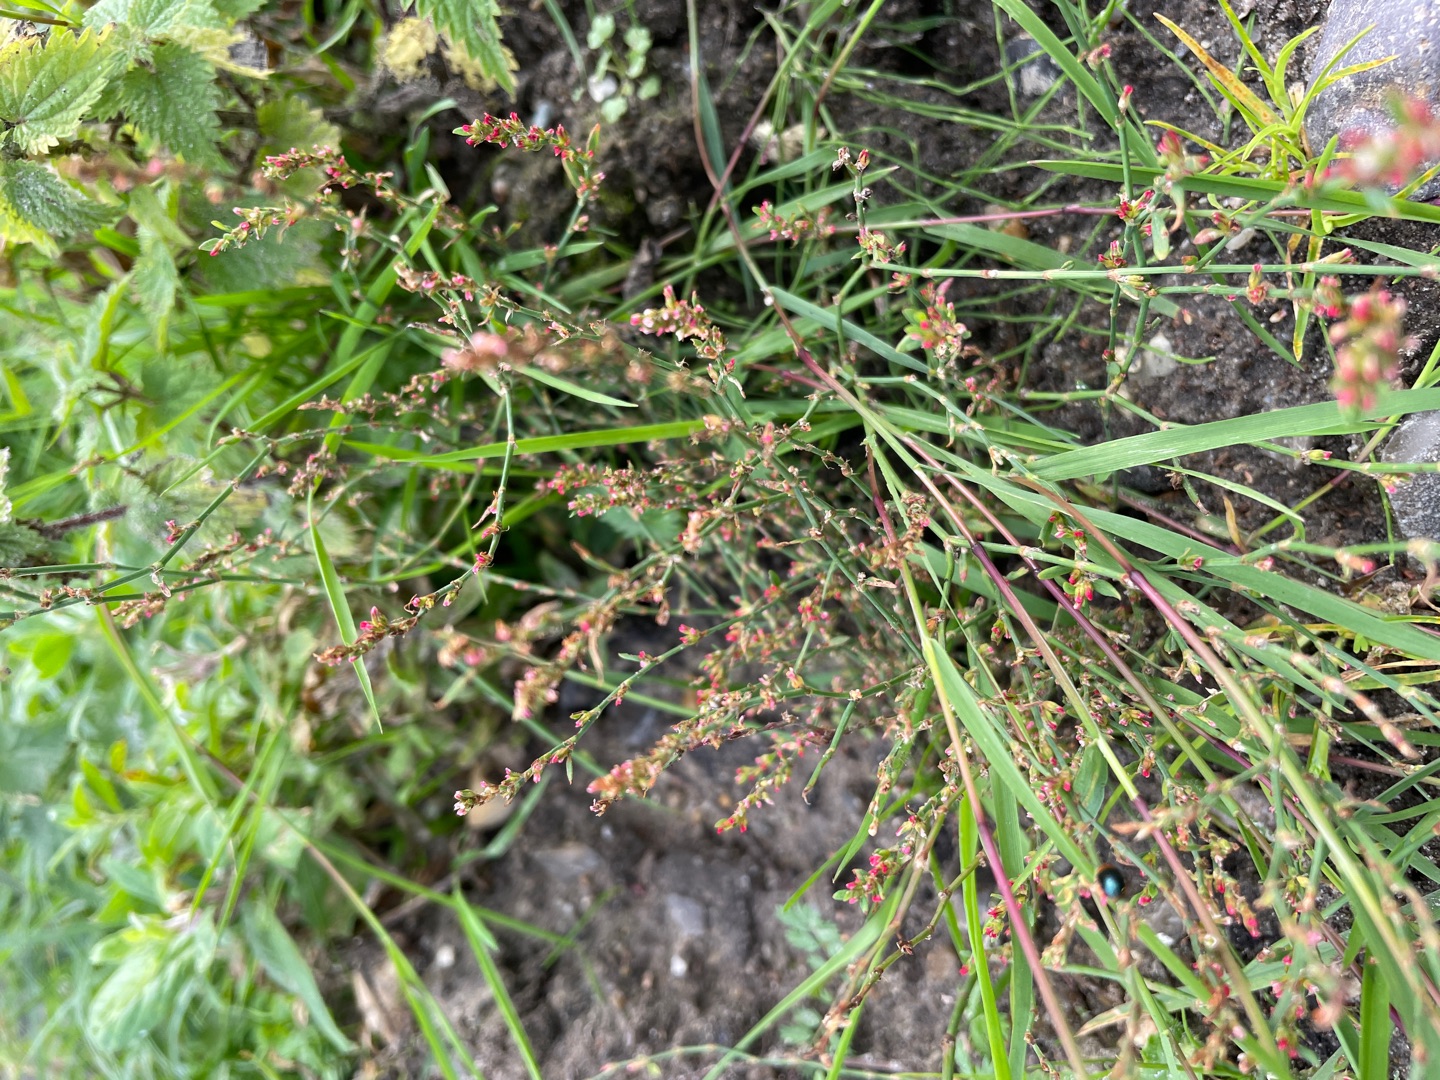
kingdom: Plantae
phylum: Tracheophyta
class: Magnoliopsida
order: Caryophyllales
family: Polygonaceae
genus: Polygonum
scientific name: Polygonum arenastrum
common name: Liggende vej-pileurt
